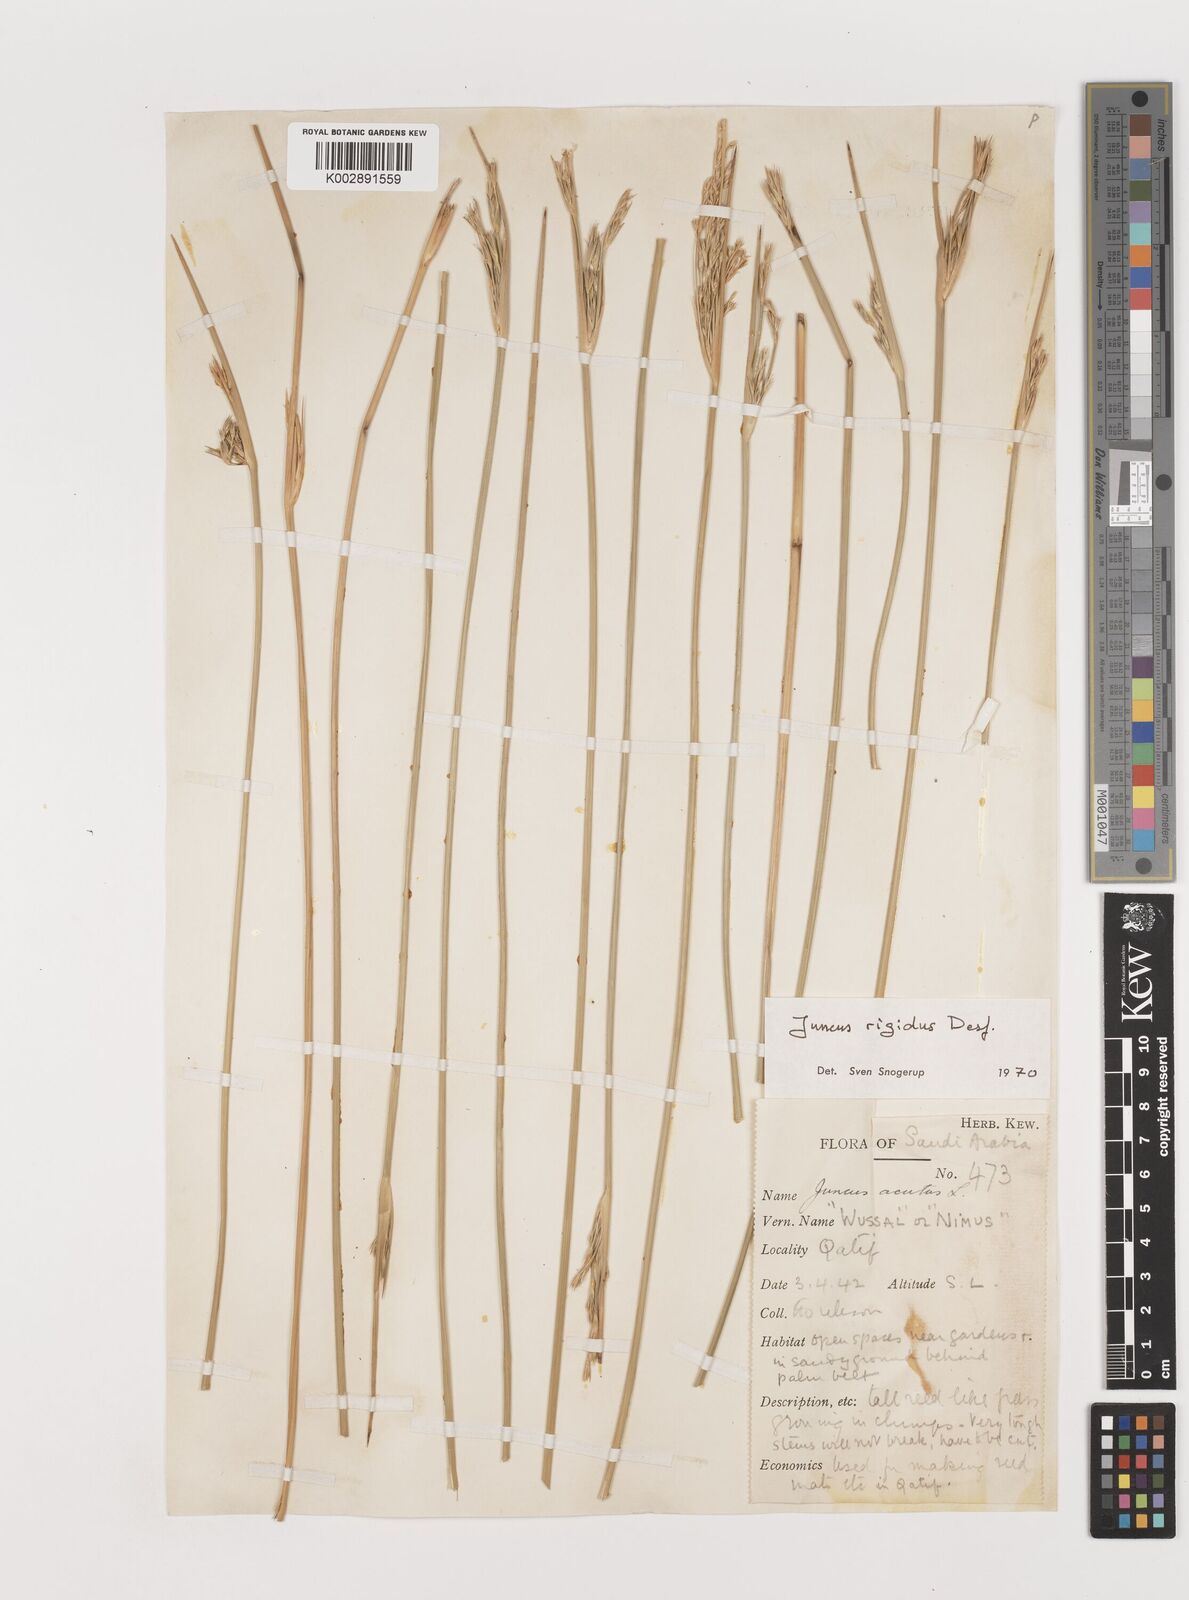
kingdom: Plantae
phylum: Tracheophyta
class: Liliopsida
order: Poales
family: Juncaceae
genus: Juncus
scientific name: Juncus rigidus
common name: Hard sea rush
